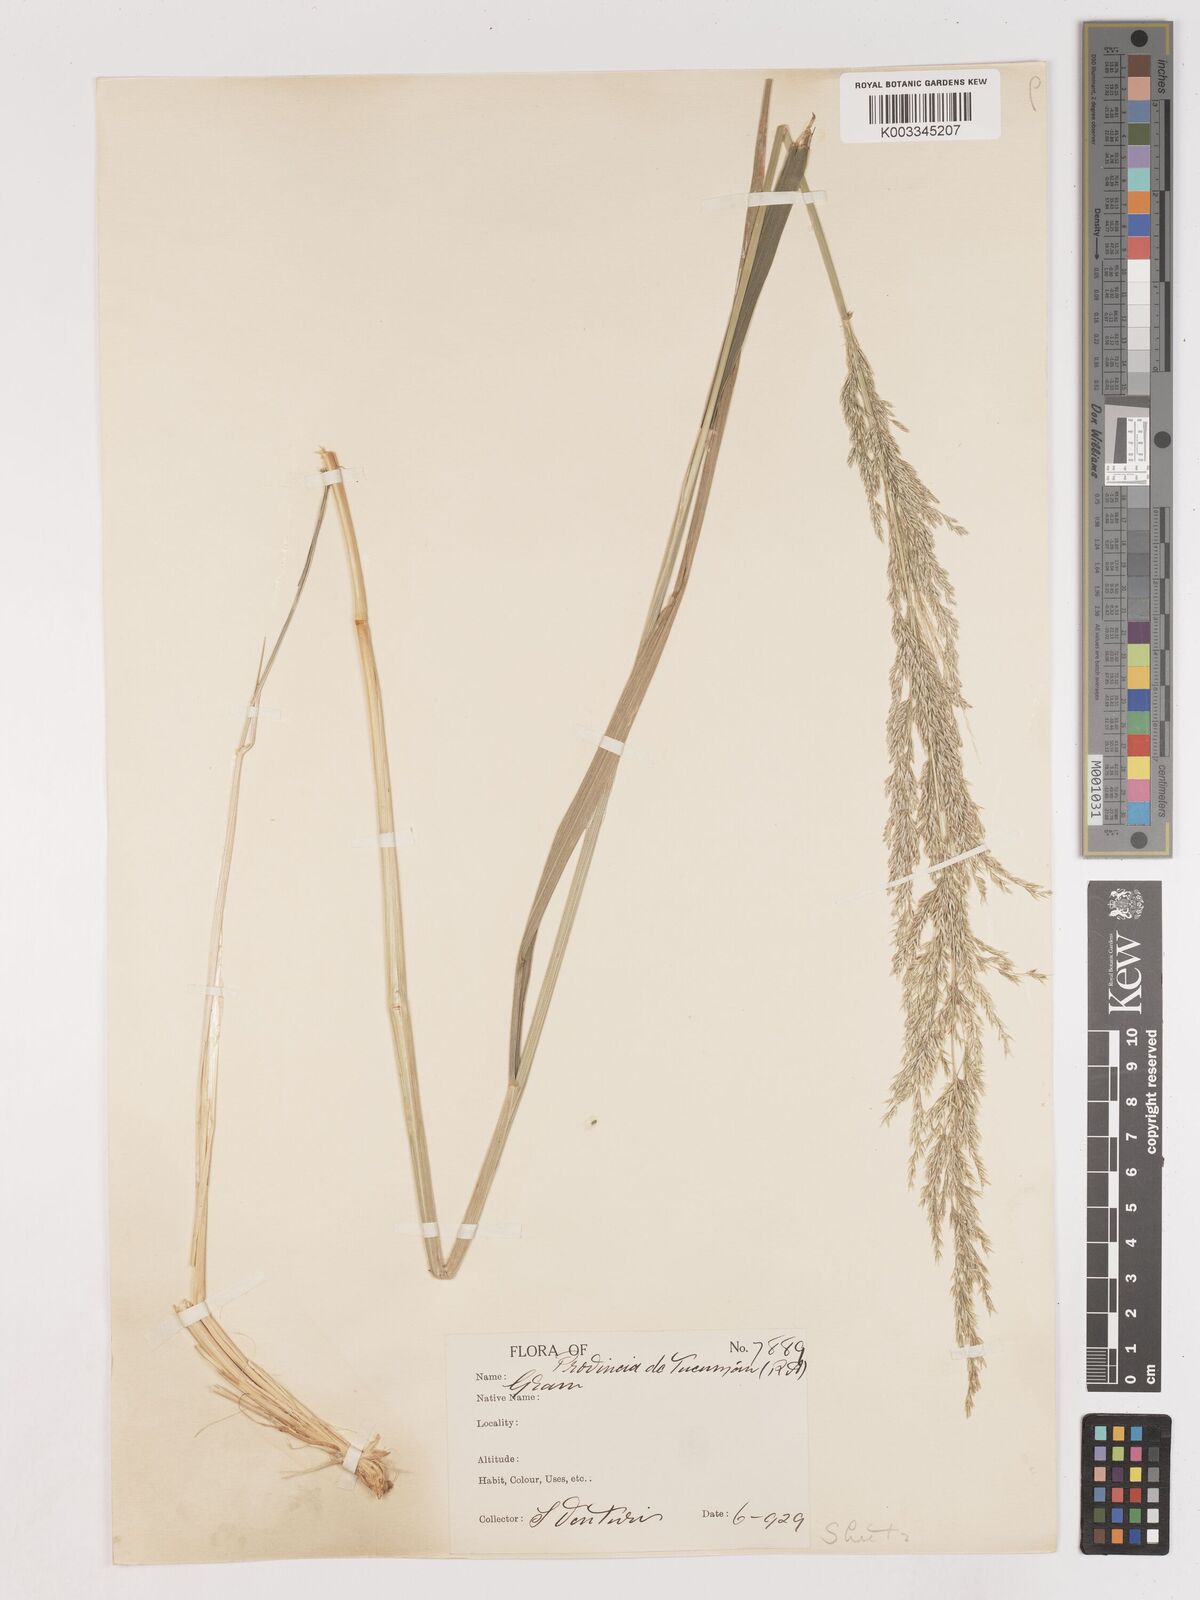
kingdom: Plantae
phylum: Tracheophyta
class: Liliopsida
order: Poales
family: Poaceae
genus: Cinnagrostis
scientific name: Cinnagrostis hieronymi
